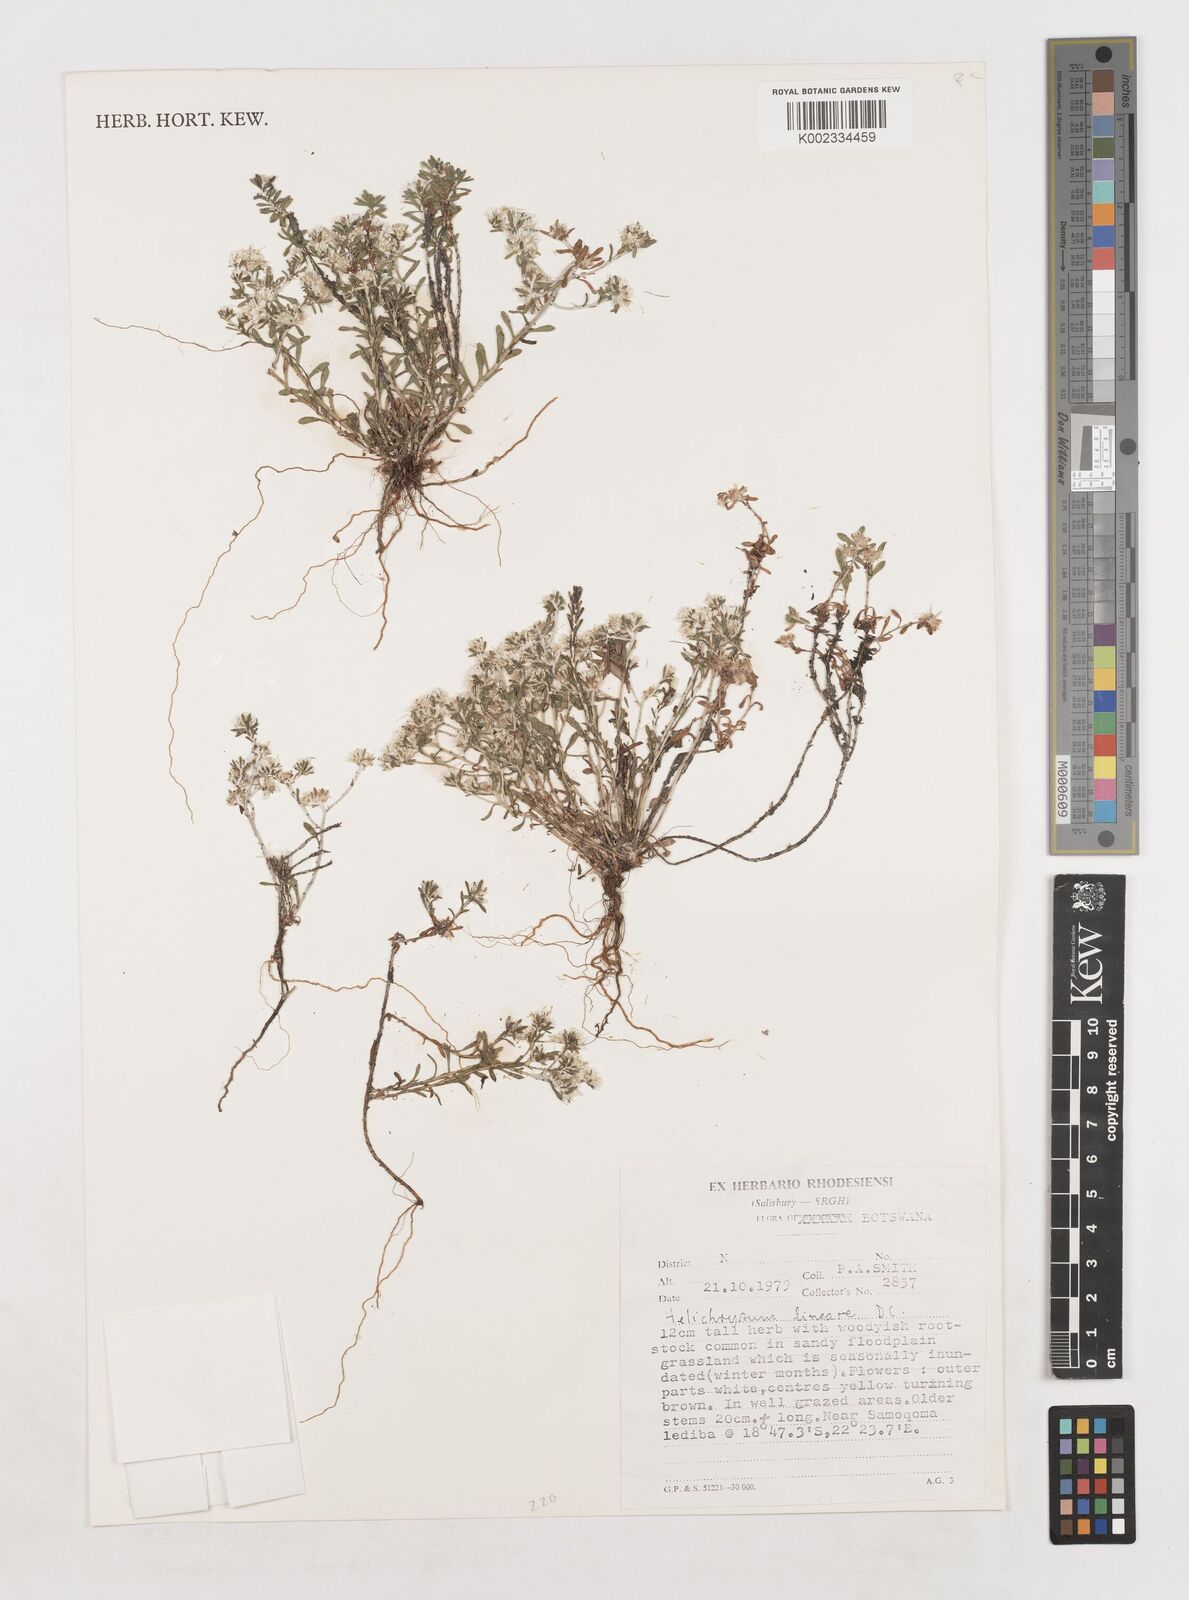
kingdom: Plantae
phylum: Tracheophyta
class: Magnoliopsida
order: Asterales
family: Asteraceae
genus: Helichrysum
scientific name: Helichrysum lineare
